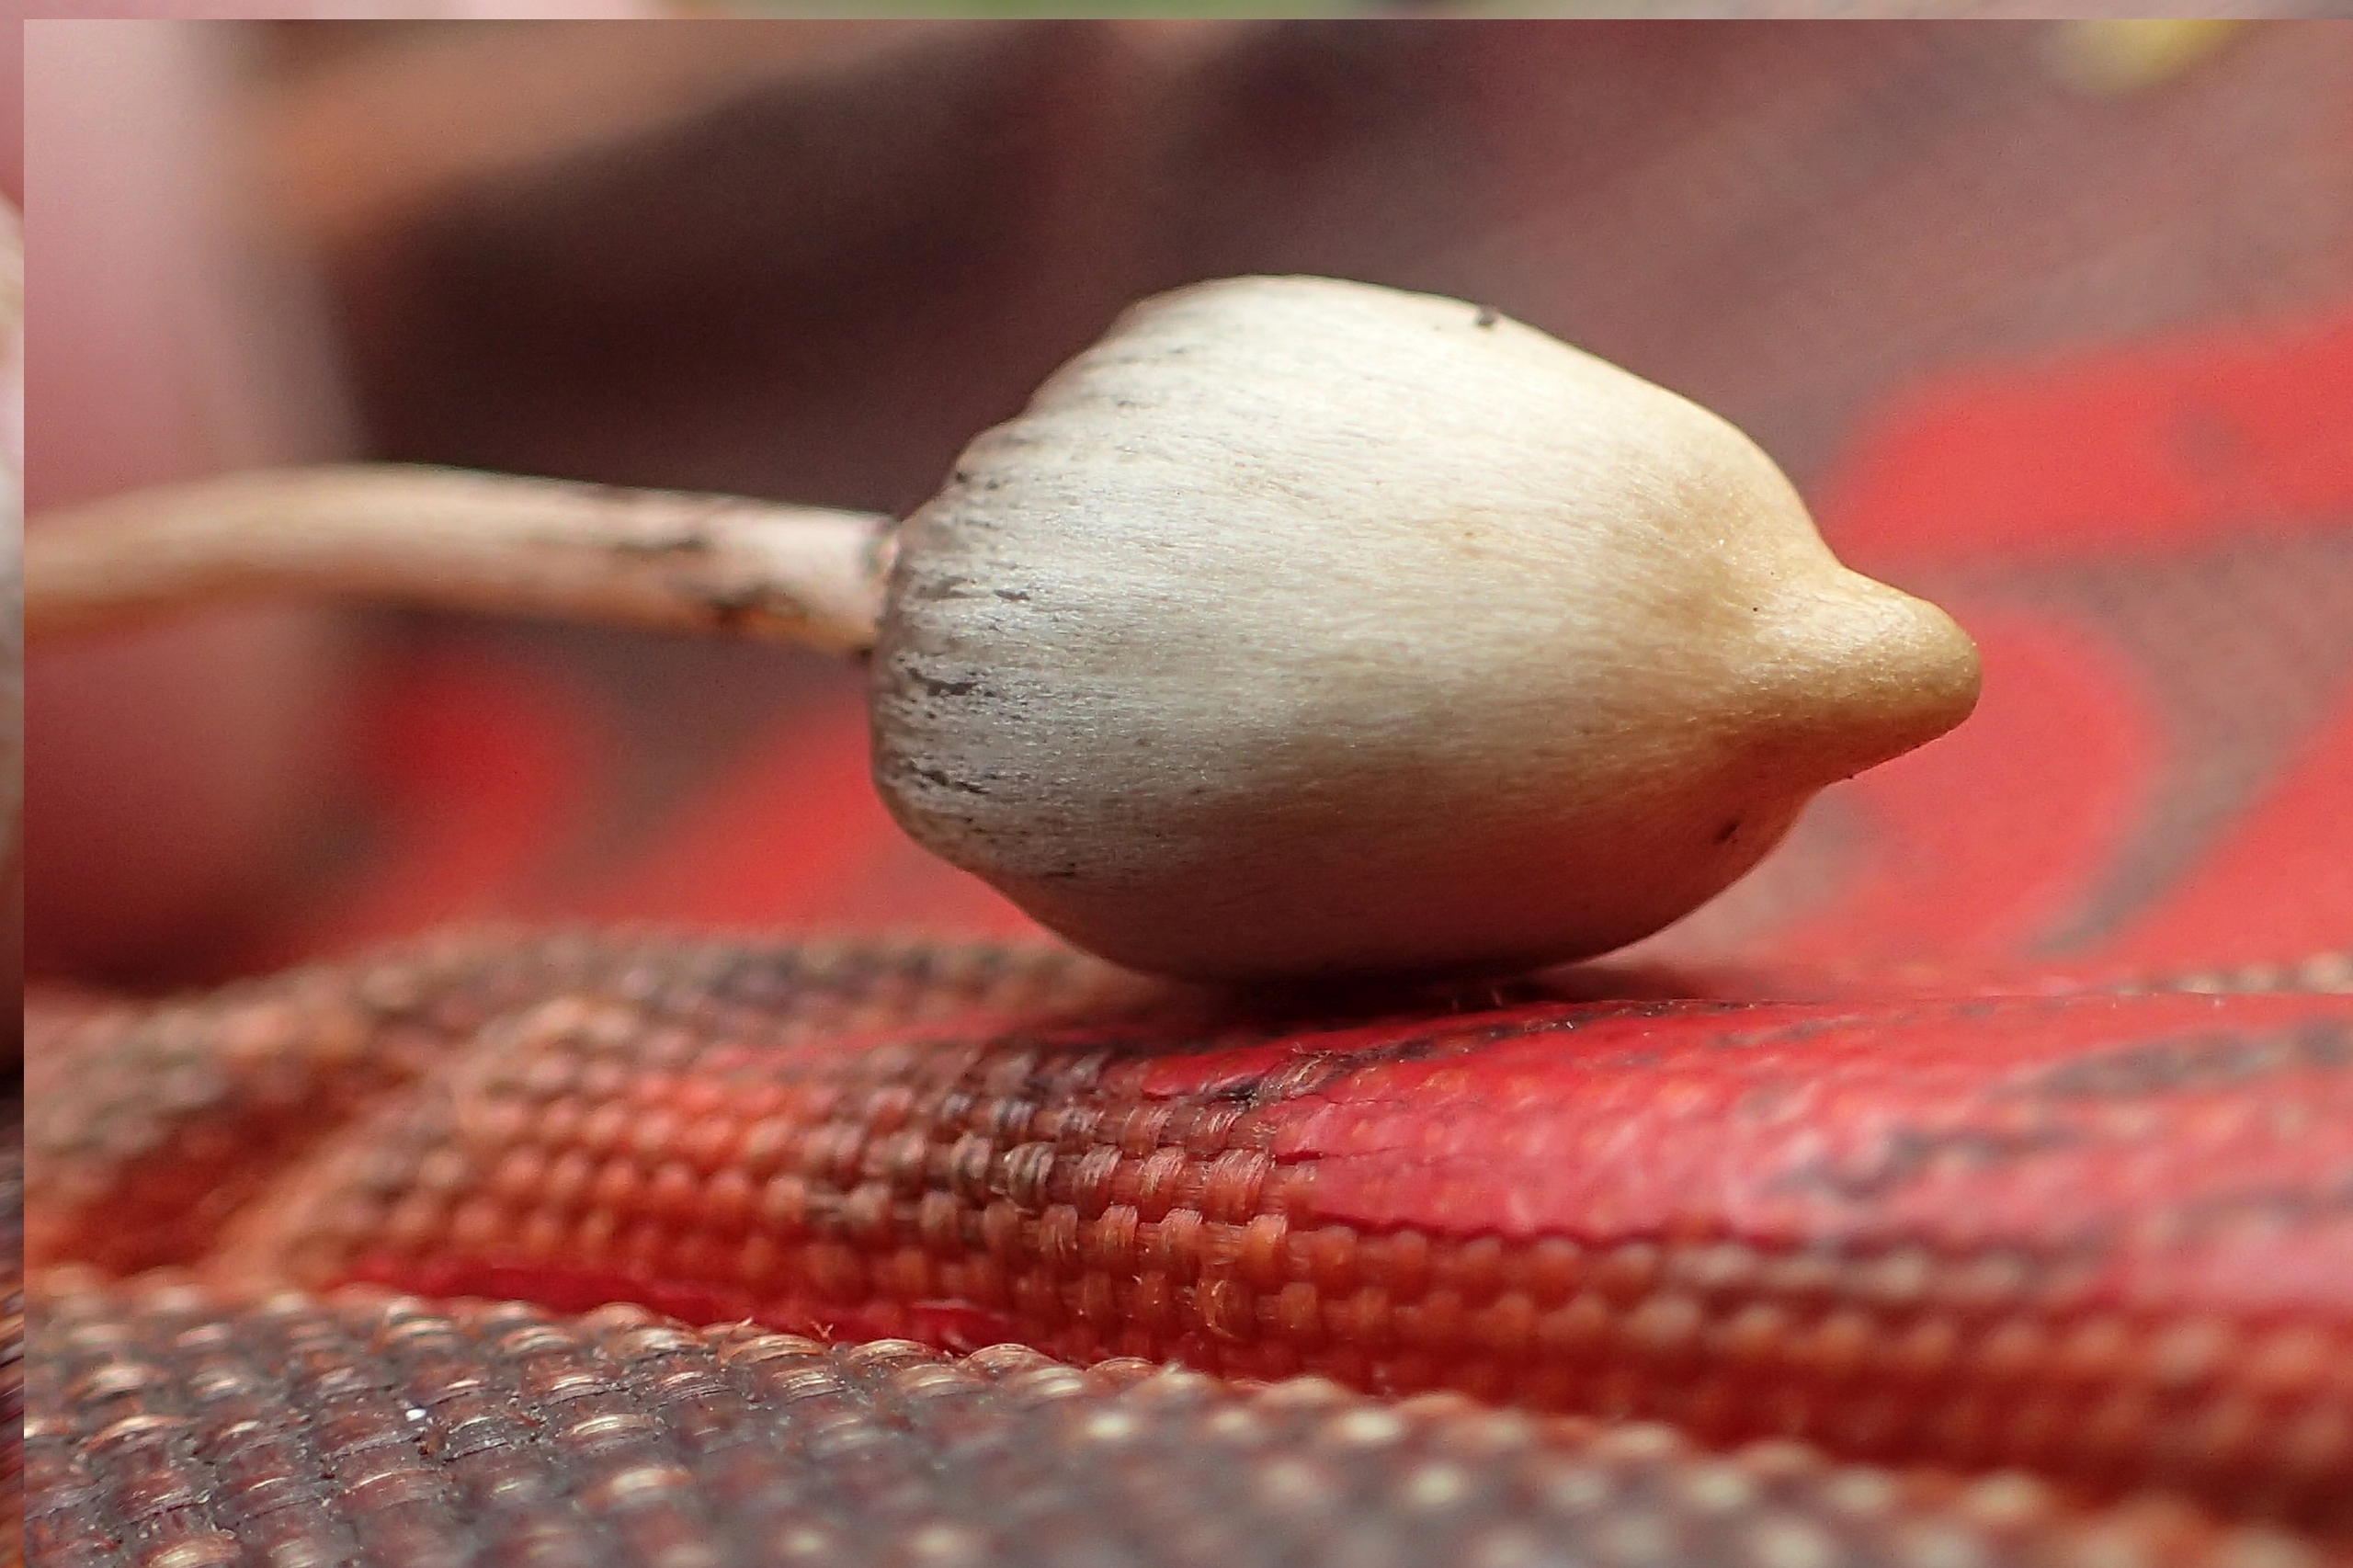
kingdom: Fungi
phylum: Basidiomycota
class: Agaricomycetes
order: Agaricales
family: Hymenogastraceae
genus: Psilocybe
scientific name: Psilocybe semilanceata
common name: Spids nøgenhat
